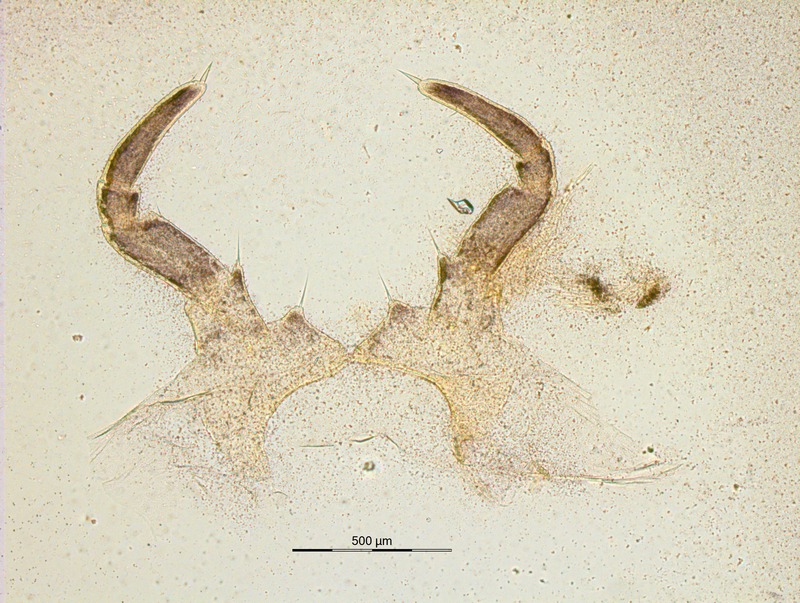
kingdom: Animalia
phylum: Arthropoda
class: Diplopoda
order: Glomerida
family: Glomeridae
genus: Glomeris
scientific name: Glomeris klugii
